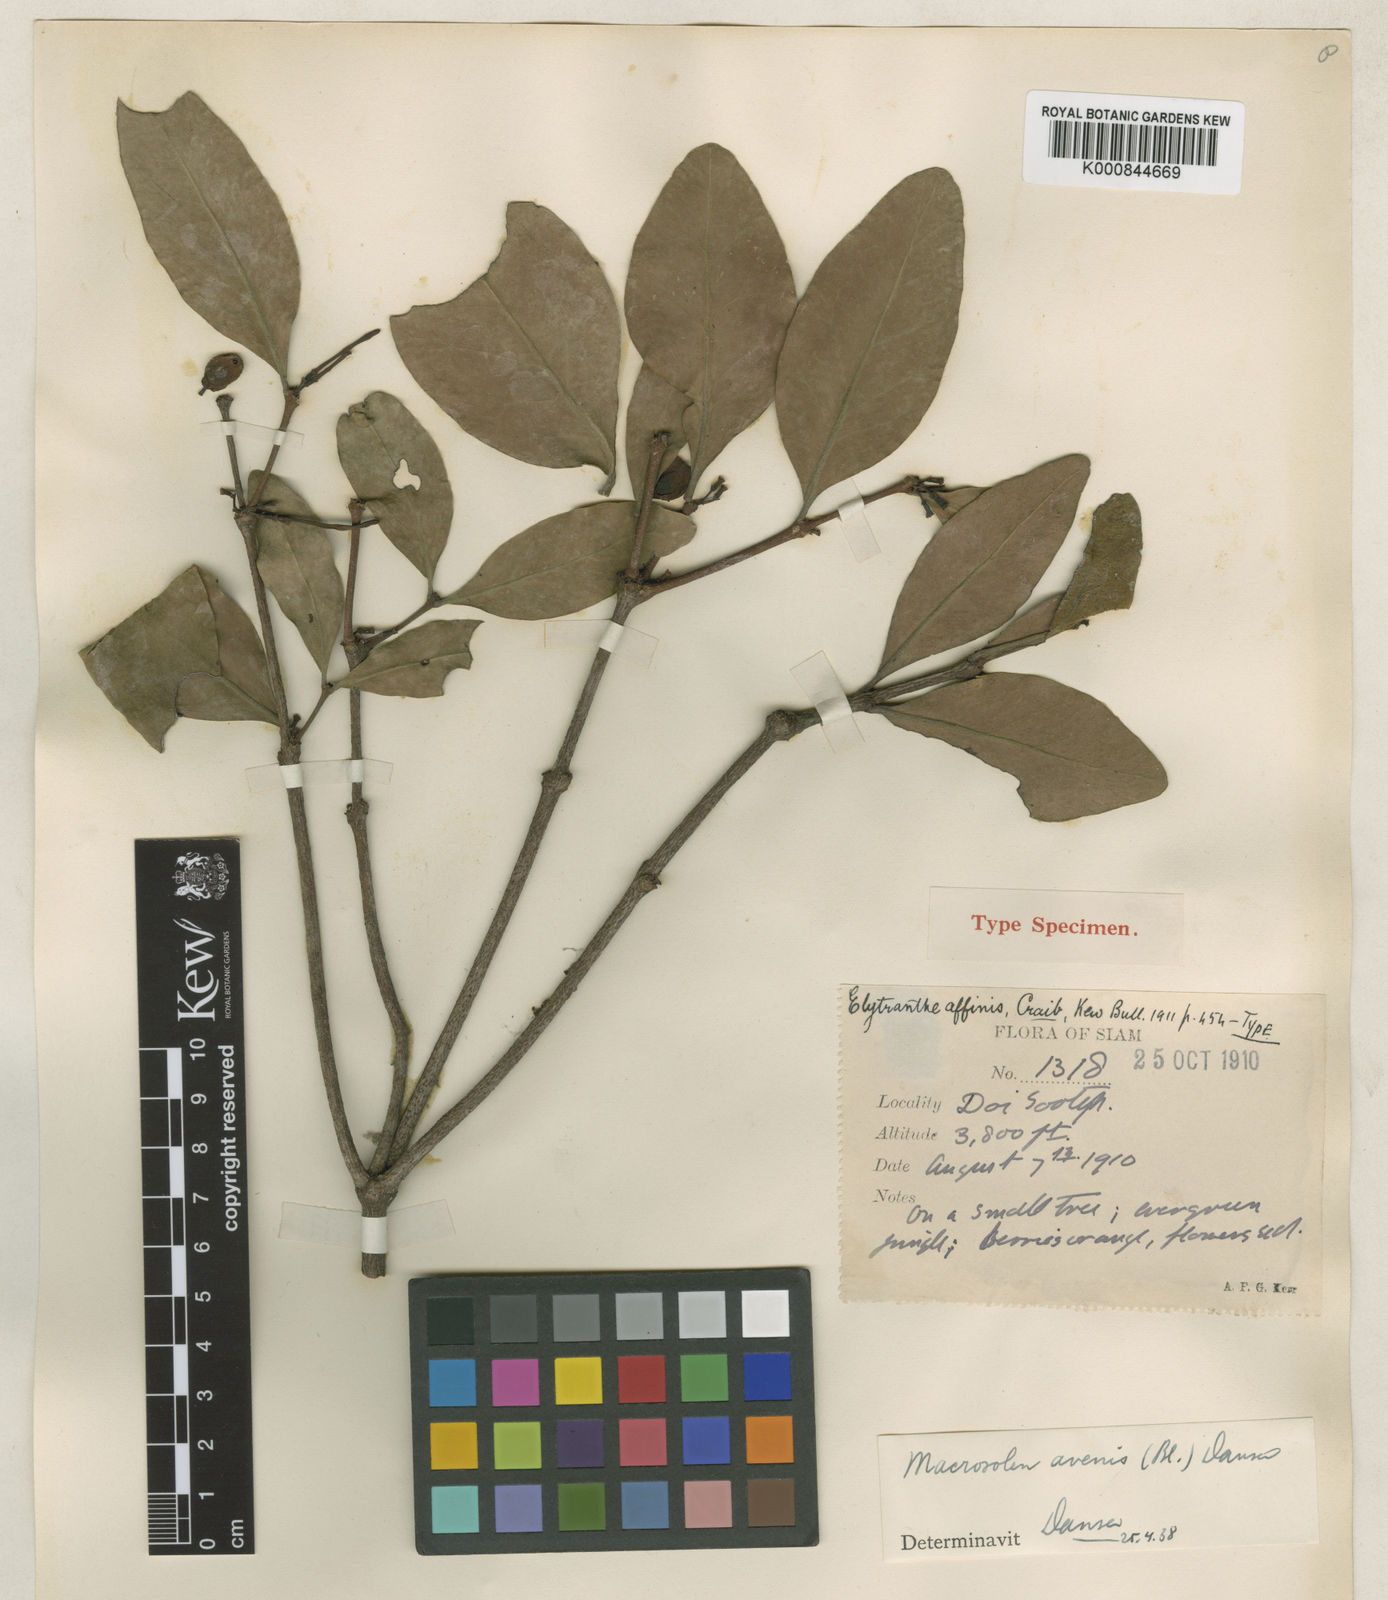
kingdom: Plantae
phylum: Tracheophyta
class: Magnoliopsida
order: Santalales
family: Loranthaceae
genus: Macrosolen
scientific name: Macrosolen
